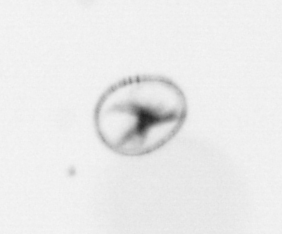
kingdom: Chromista
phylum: Myzozoa
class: Dinophyceae
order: Noctilucales
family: Noctilucaceae
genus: Noctiluca
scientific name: Noctiluca scintillans
